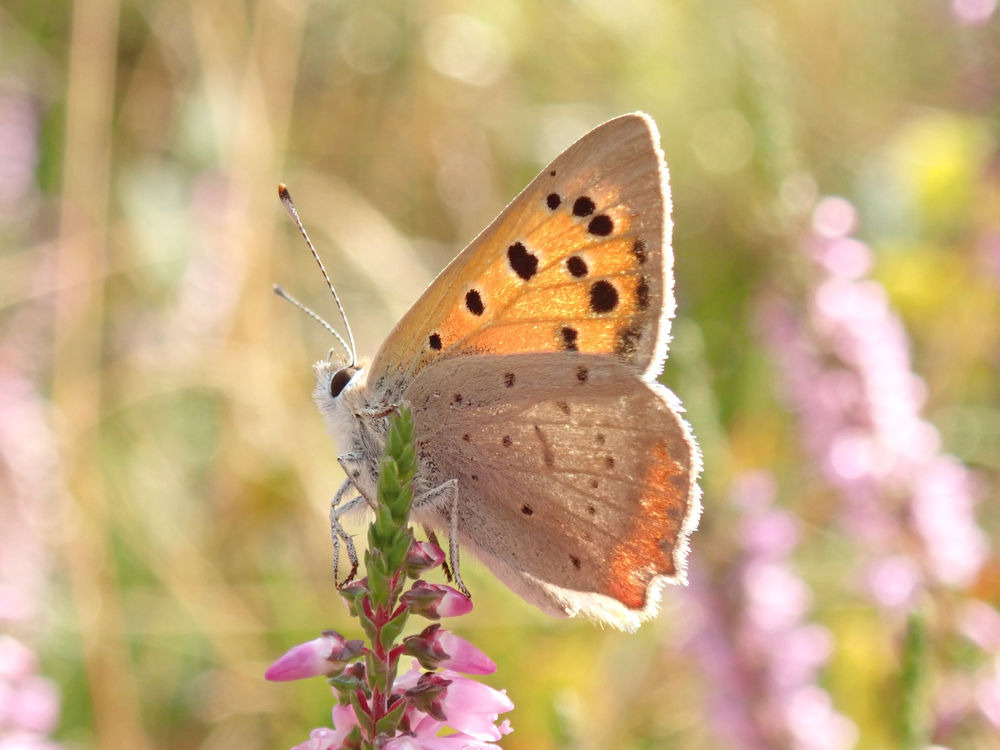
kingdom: Animalia
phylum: Arthropoda
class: Insecta
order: Lepidoptera
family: Lycaenidae
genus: Lycaena
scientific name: Lycaena phlaeas
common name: Lille ildfugl
